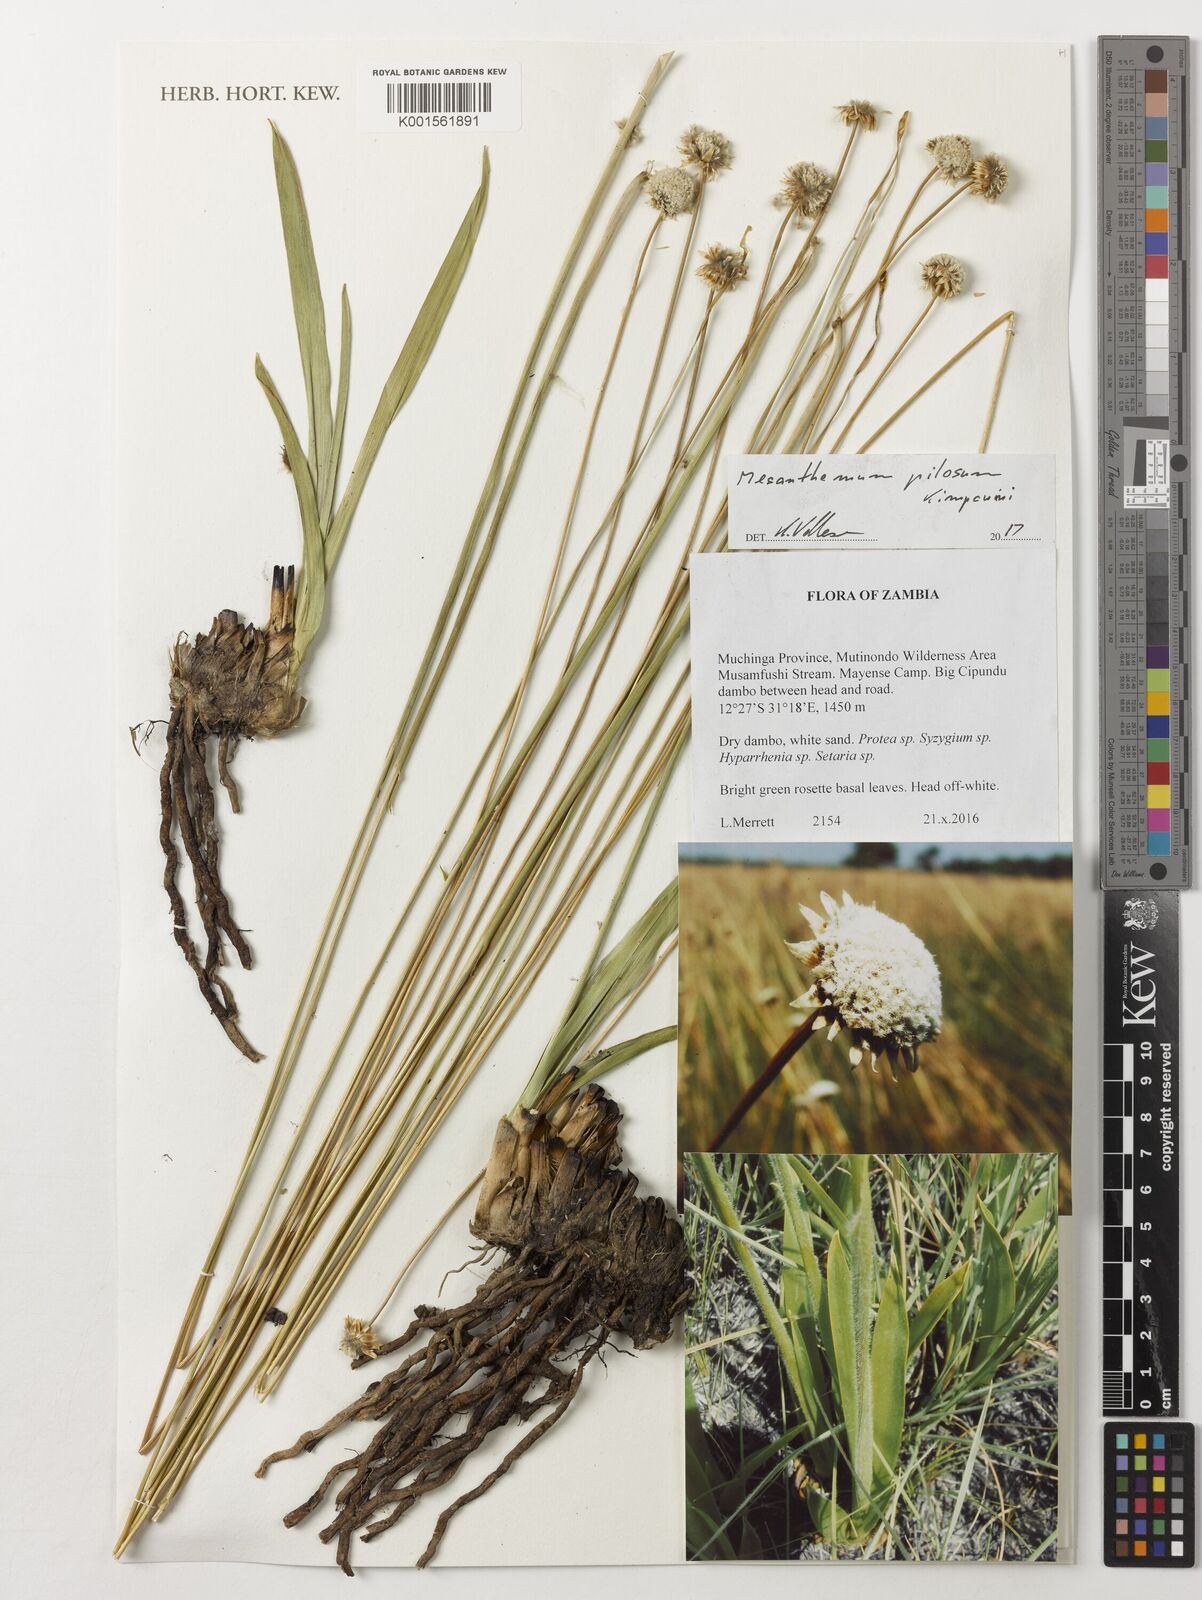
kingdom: Plantae
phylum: Tracheophyta
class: Liliopsida
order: Poales
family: Eriocaulaceae
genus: Mesanthemum
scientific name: Mesanthemum pilosum
